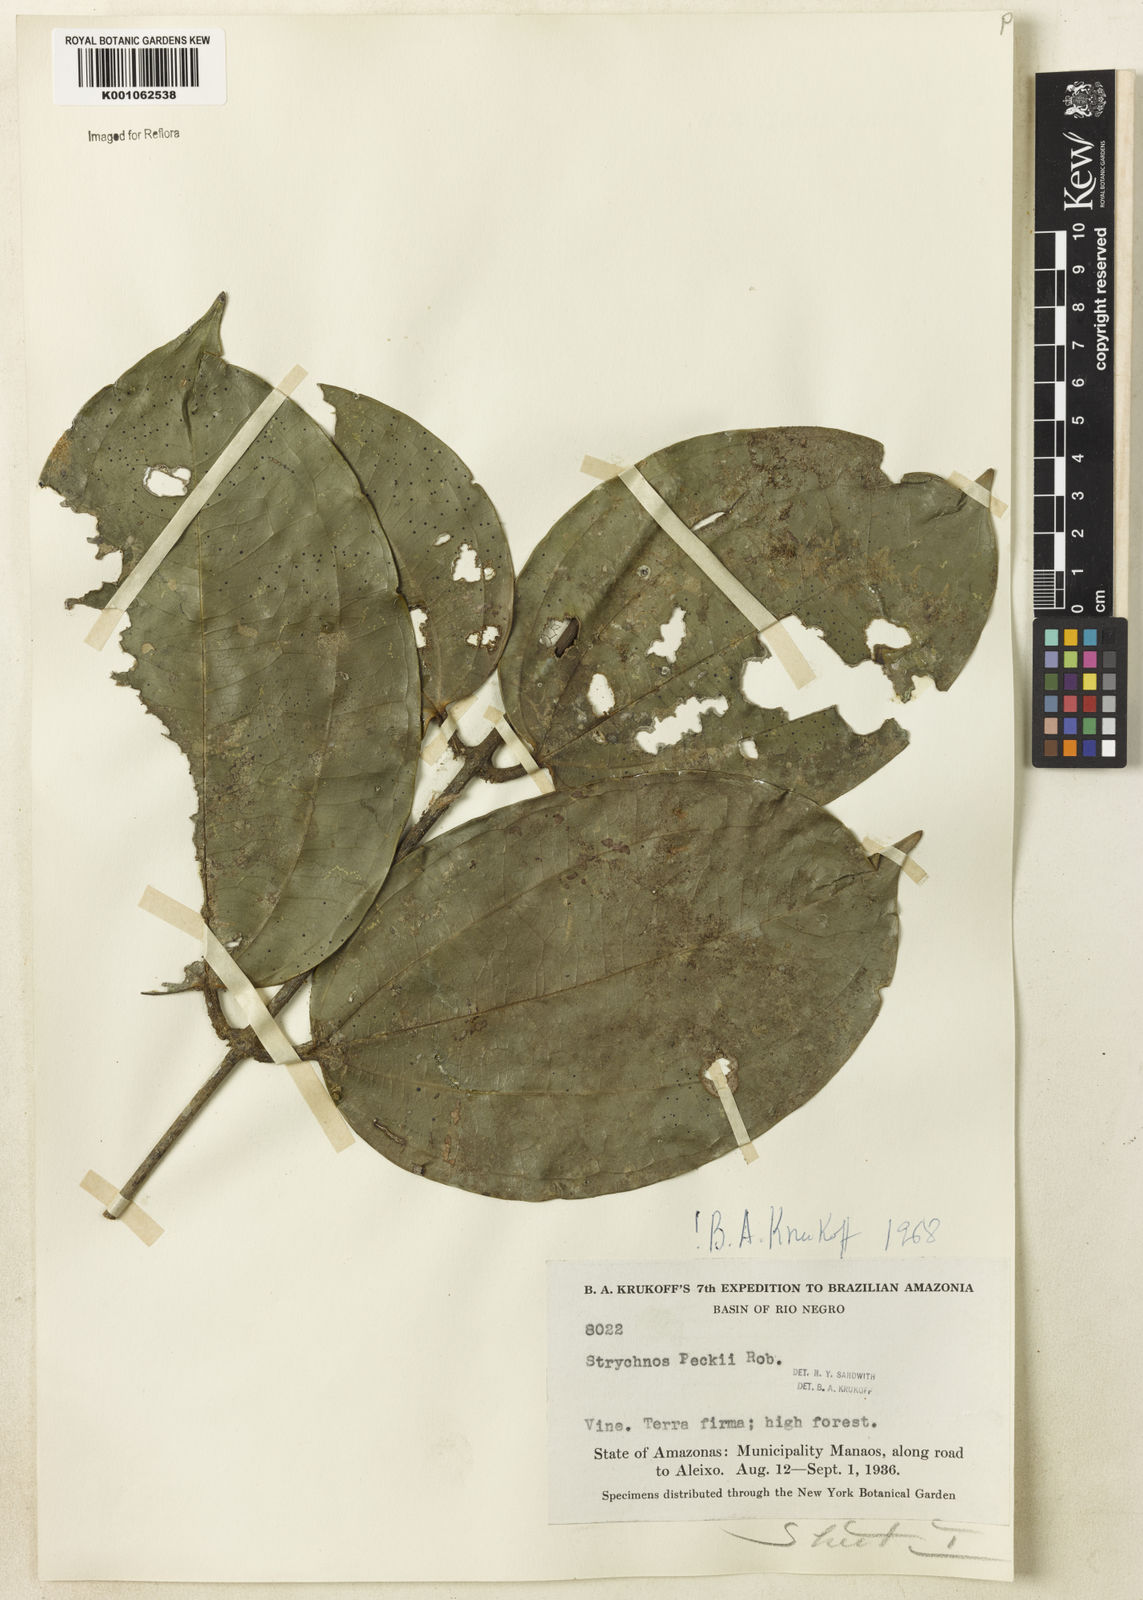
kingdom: Plantae
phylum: Tracheophyta
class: Magnoliopsida
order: Gentianales
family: Loganiaceae
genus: Strychnos
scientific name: Strychnos peckii
